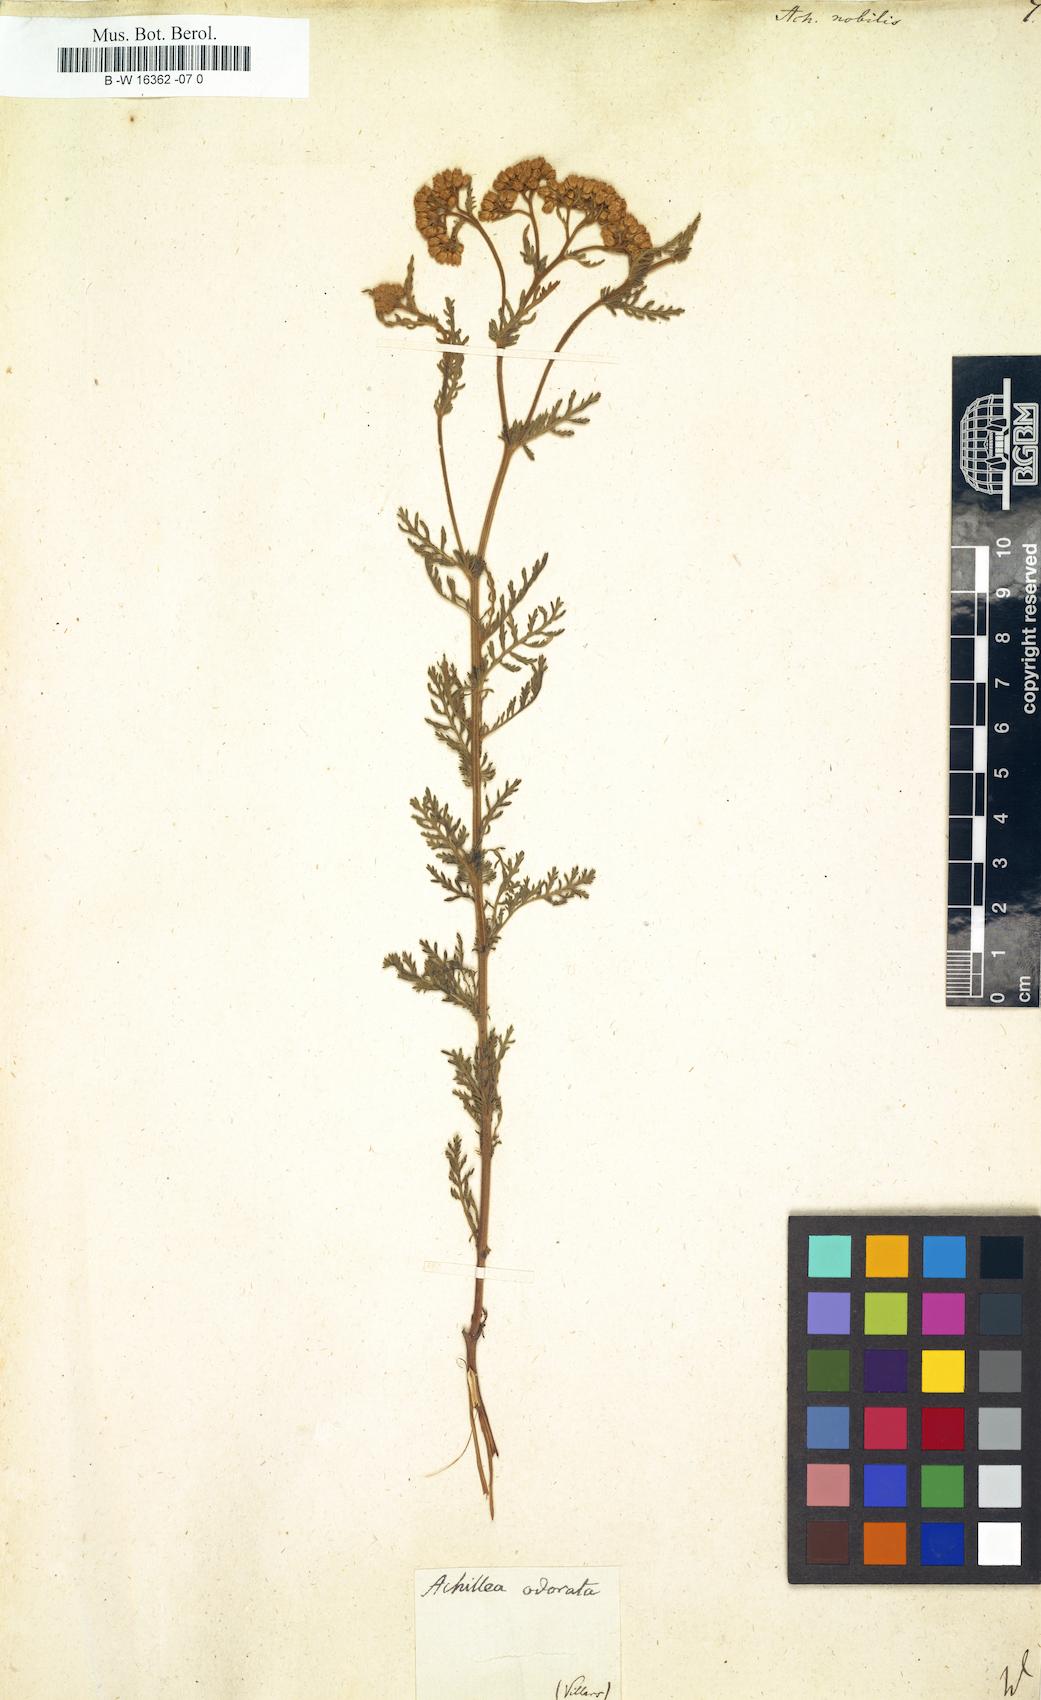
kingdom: Plantae
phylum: Tracheophyta
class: Magnoliopsida
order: Asterales
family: Asteraceae
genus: Achillea
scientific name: Achillea nobilis
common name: Noble yarrow
